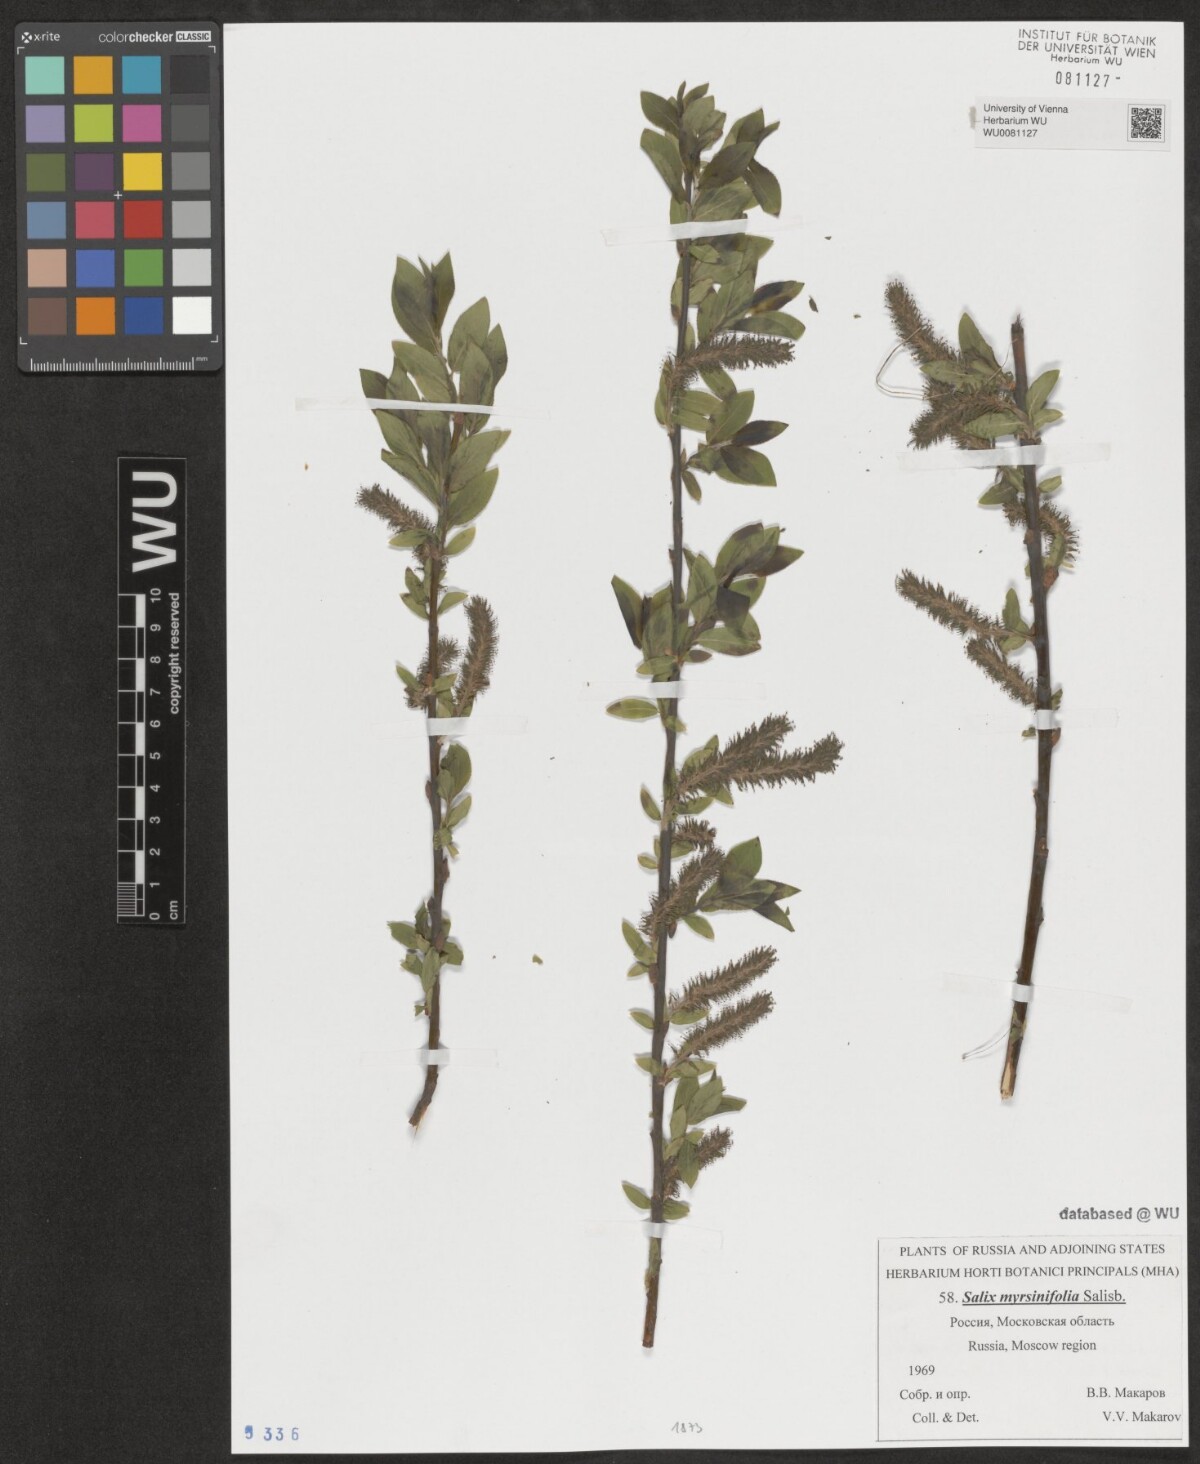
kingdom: Plantae
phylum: Tracheophyta
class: Magnoliopsida
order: Malpighiales
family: Salicaceae
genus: Salix
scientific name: Salix myrsinifolia
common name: Dark-leaved willow
